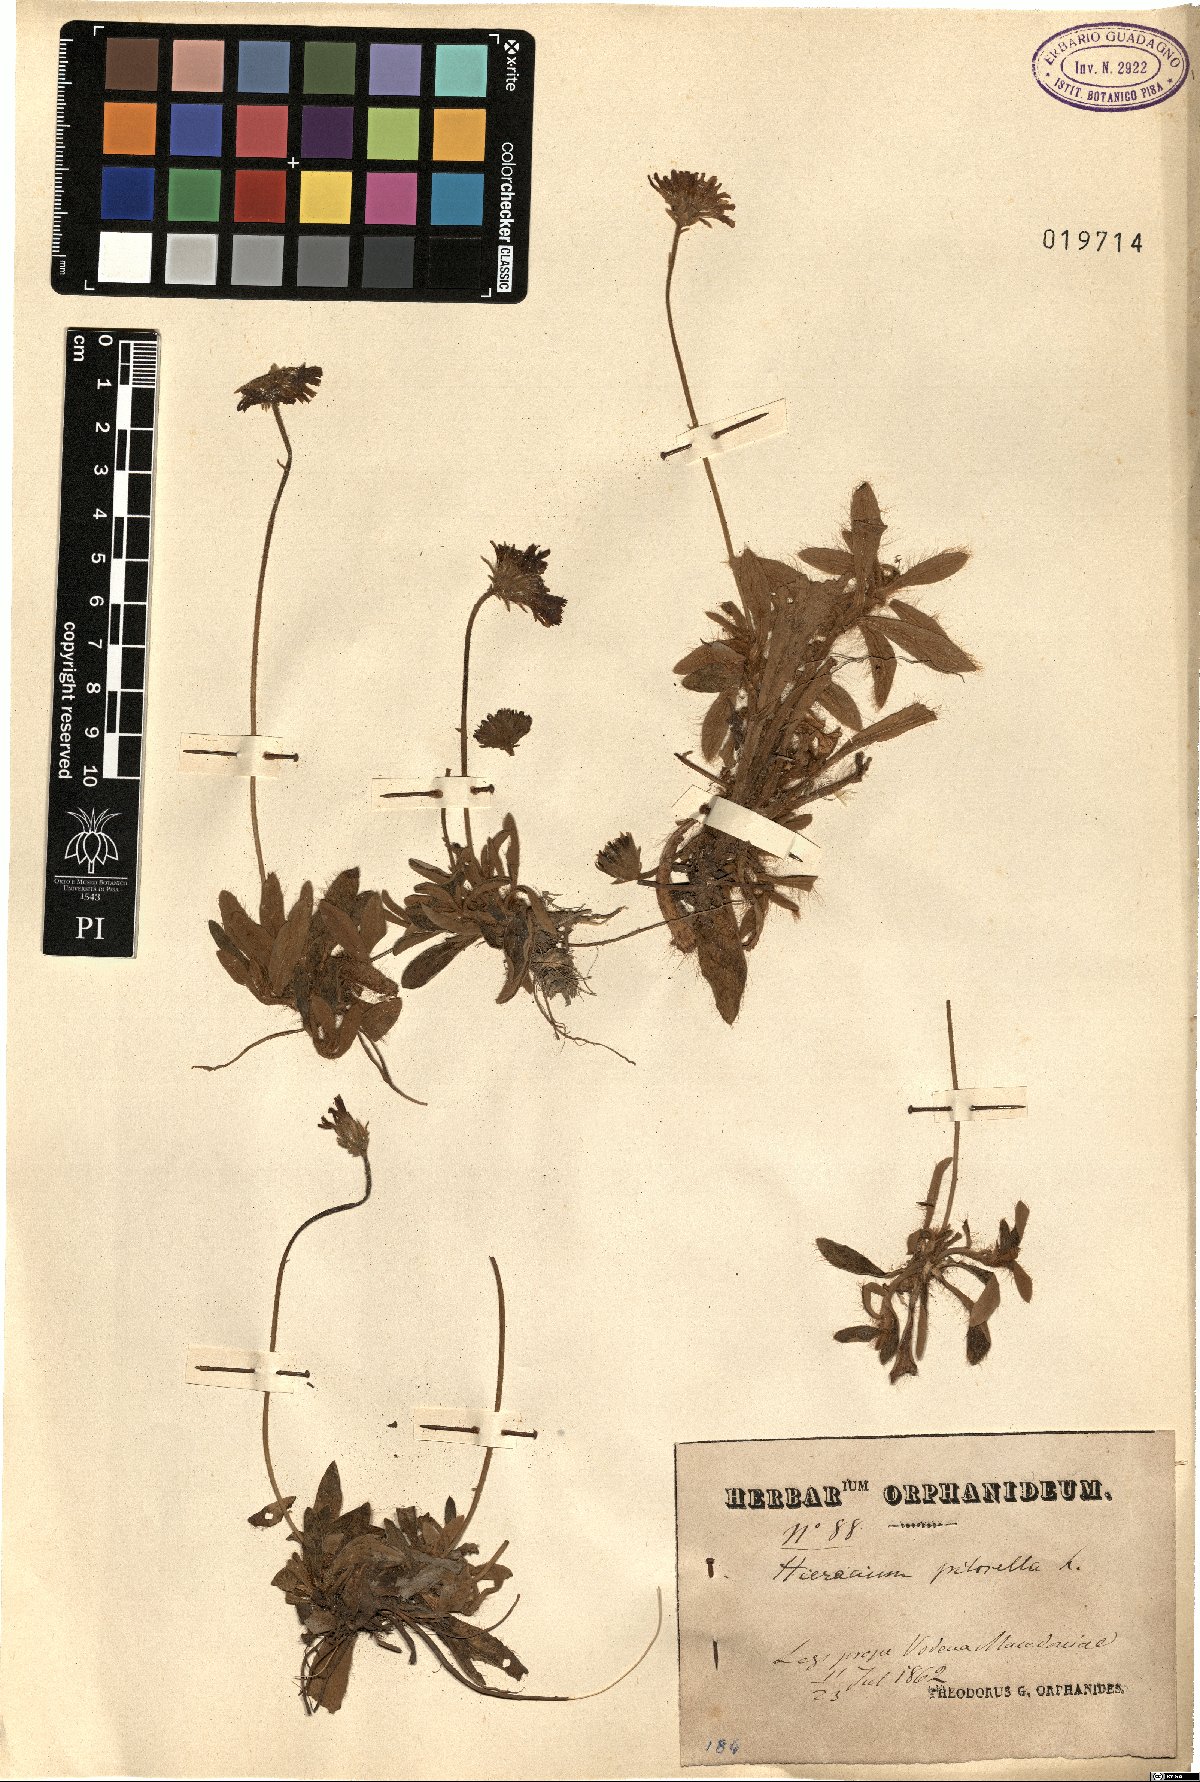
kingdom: Plantae
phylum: Tracheophyta
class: Magnoliopsida
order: Asterales
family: Asteraceae
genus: Pilosella
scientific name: Pilosella officinarum
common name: Mouse-ear hawkweed
